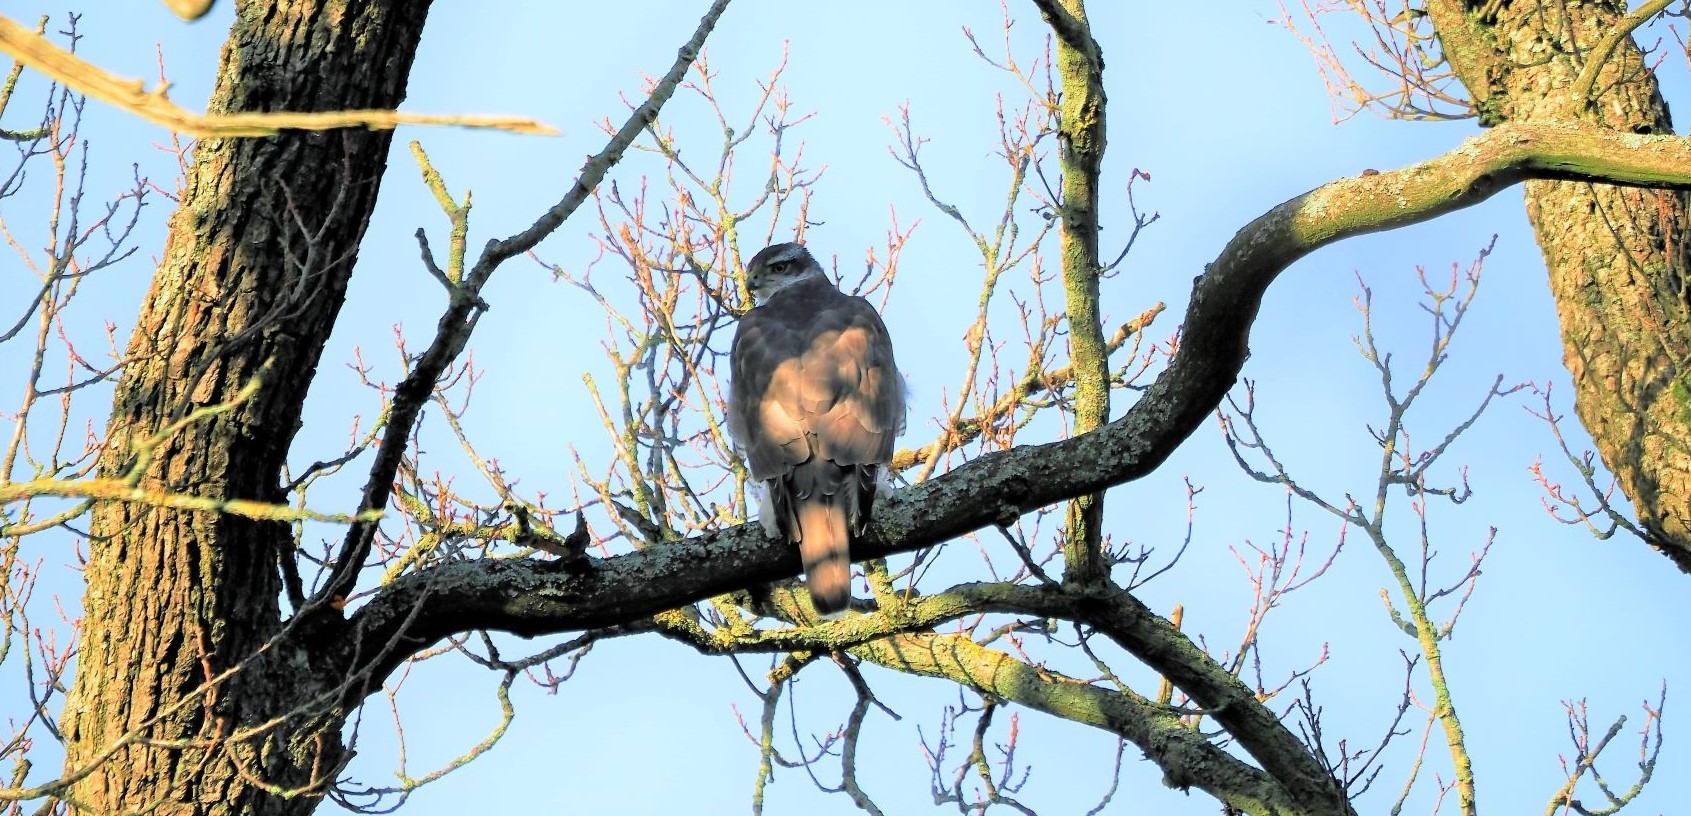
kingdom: Animalia
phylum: Chordata
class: Aves
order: Accipitriformes
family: Accipitridae
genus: Accipiter
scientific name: Accipiter gentilis
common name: Duehøg
